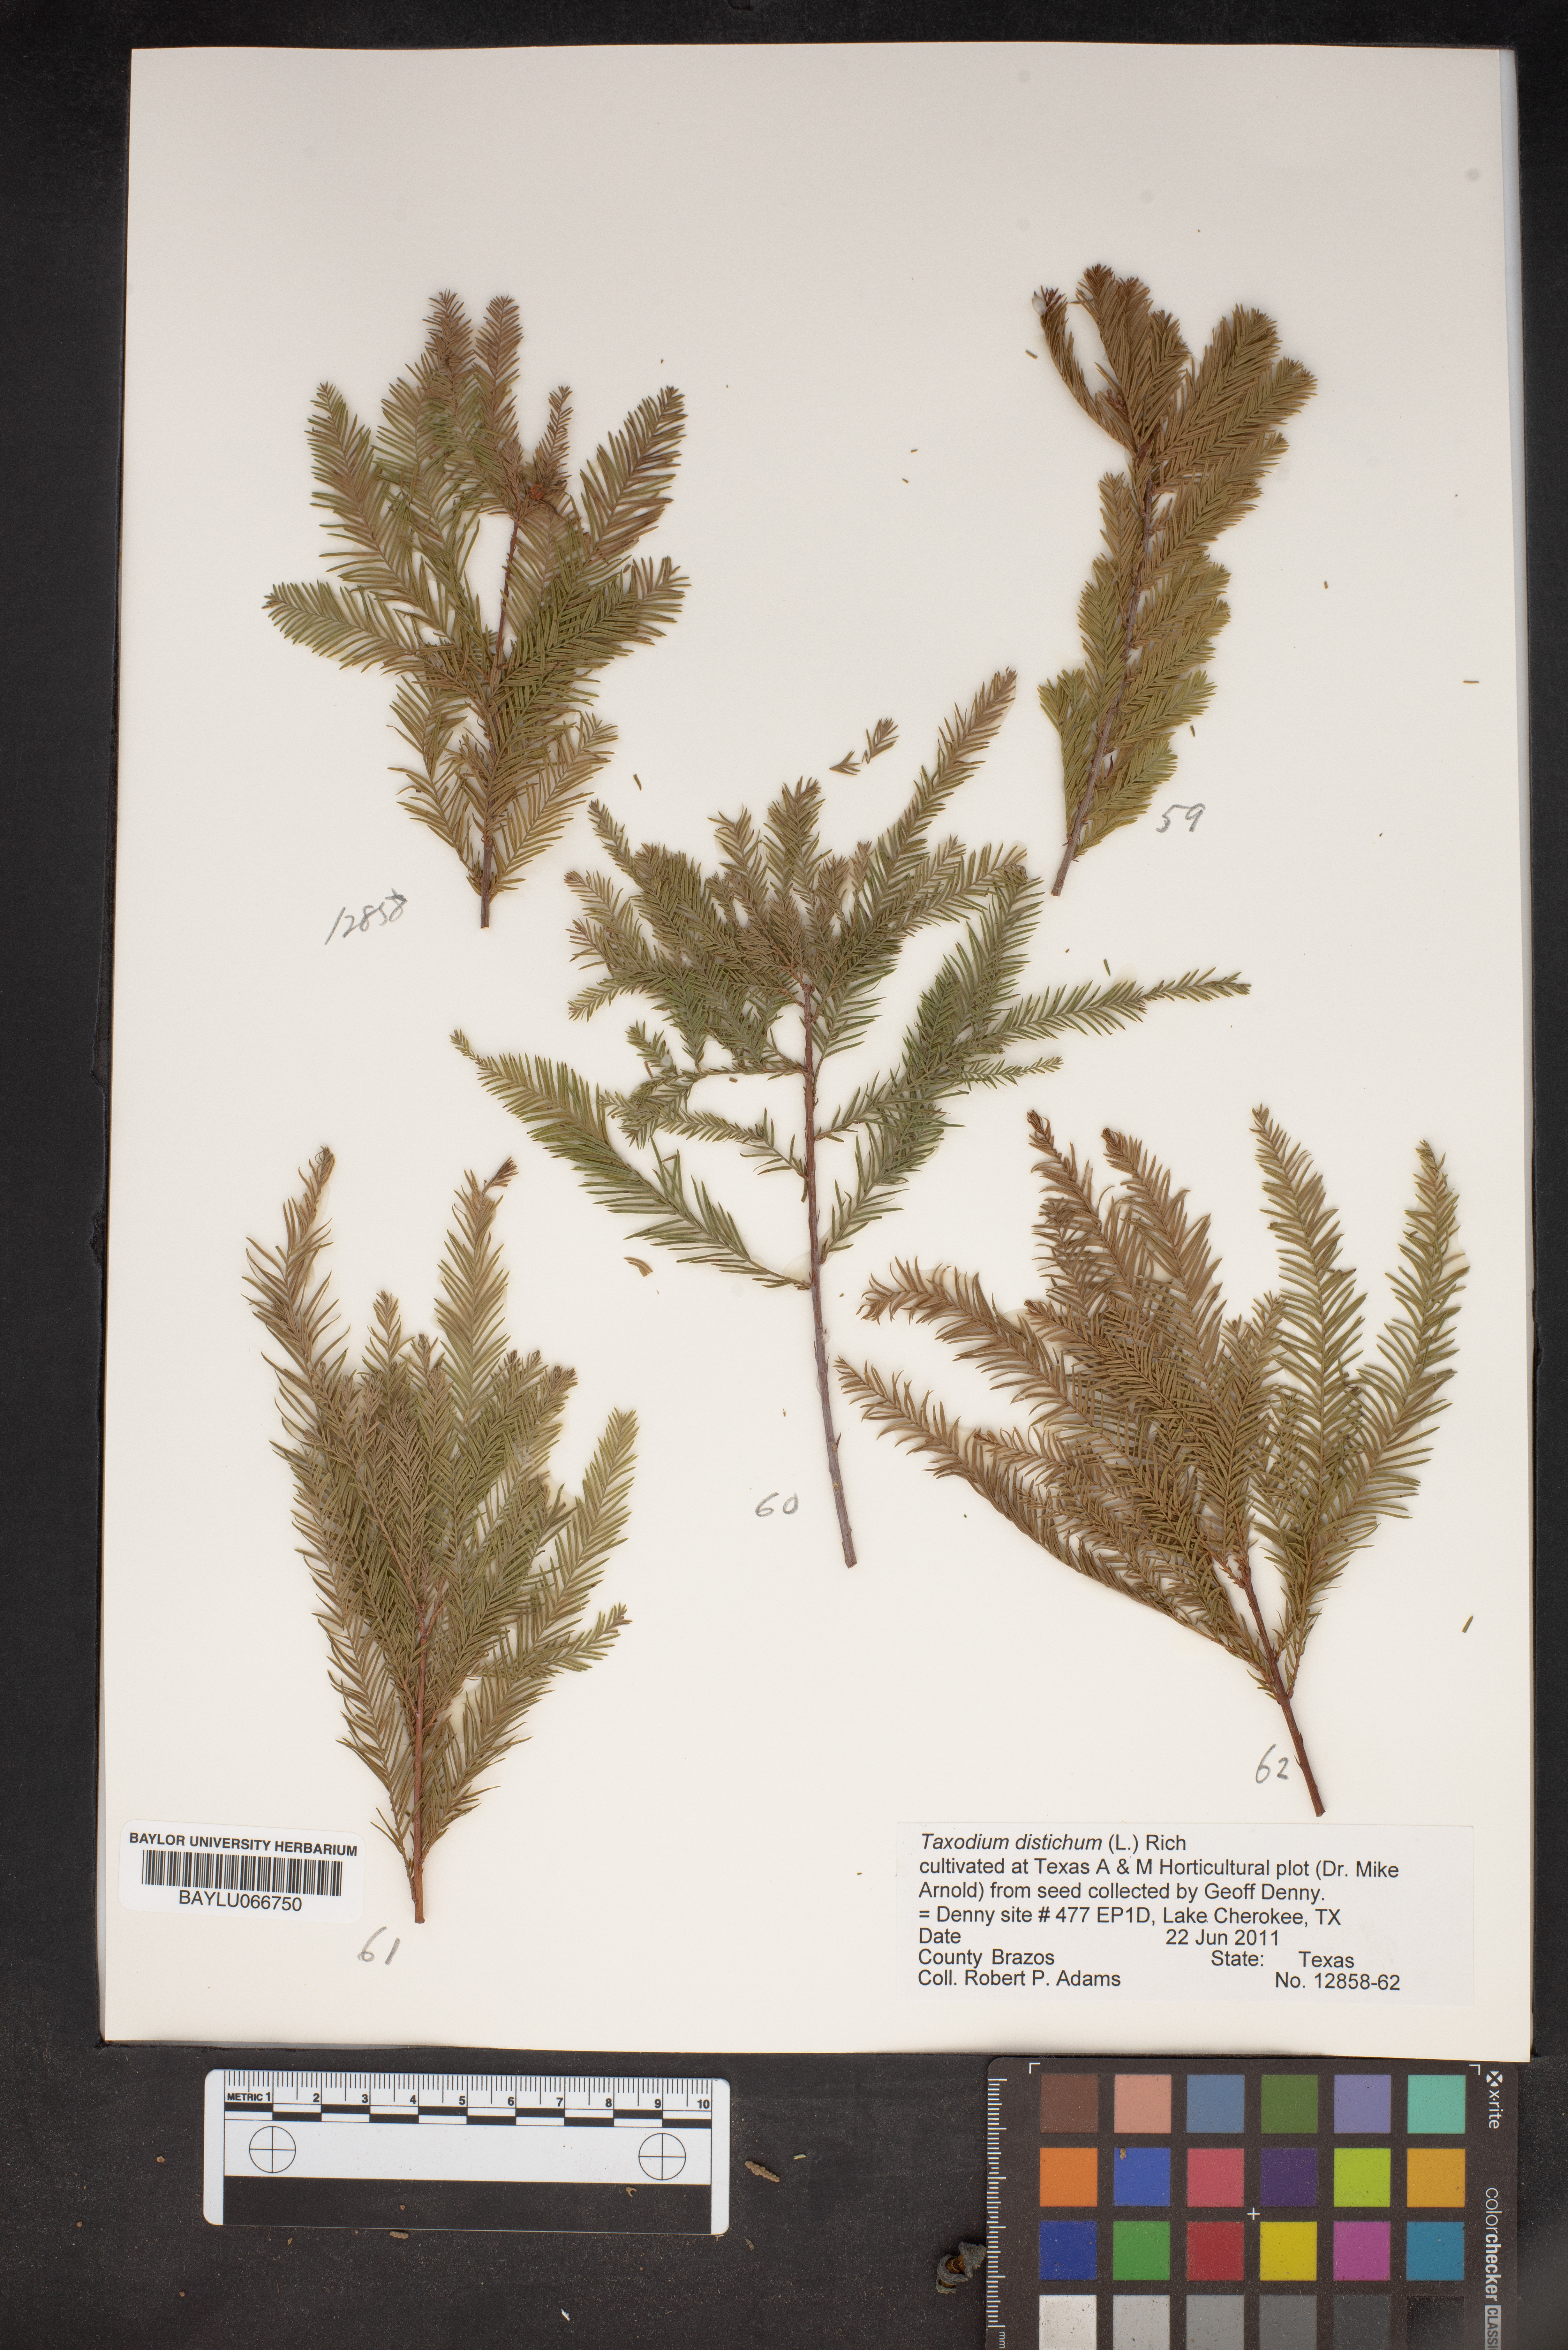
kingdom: Plantae
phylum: Tracheophyta
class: Pinopsida
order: Pinales
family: Cupressaceae
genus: Taxodium
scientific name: Taxodium distichum
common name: Bald cypress
